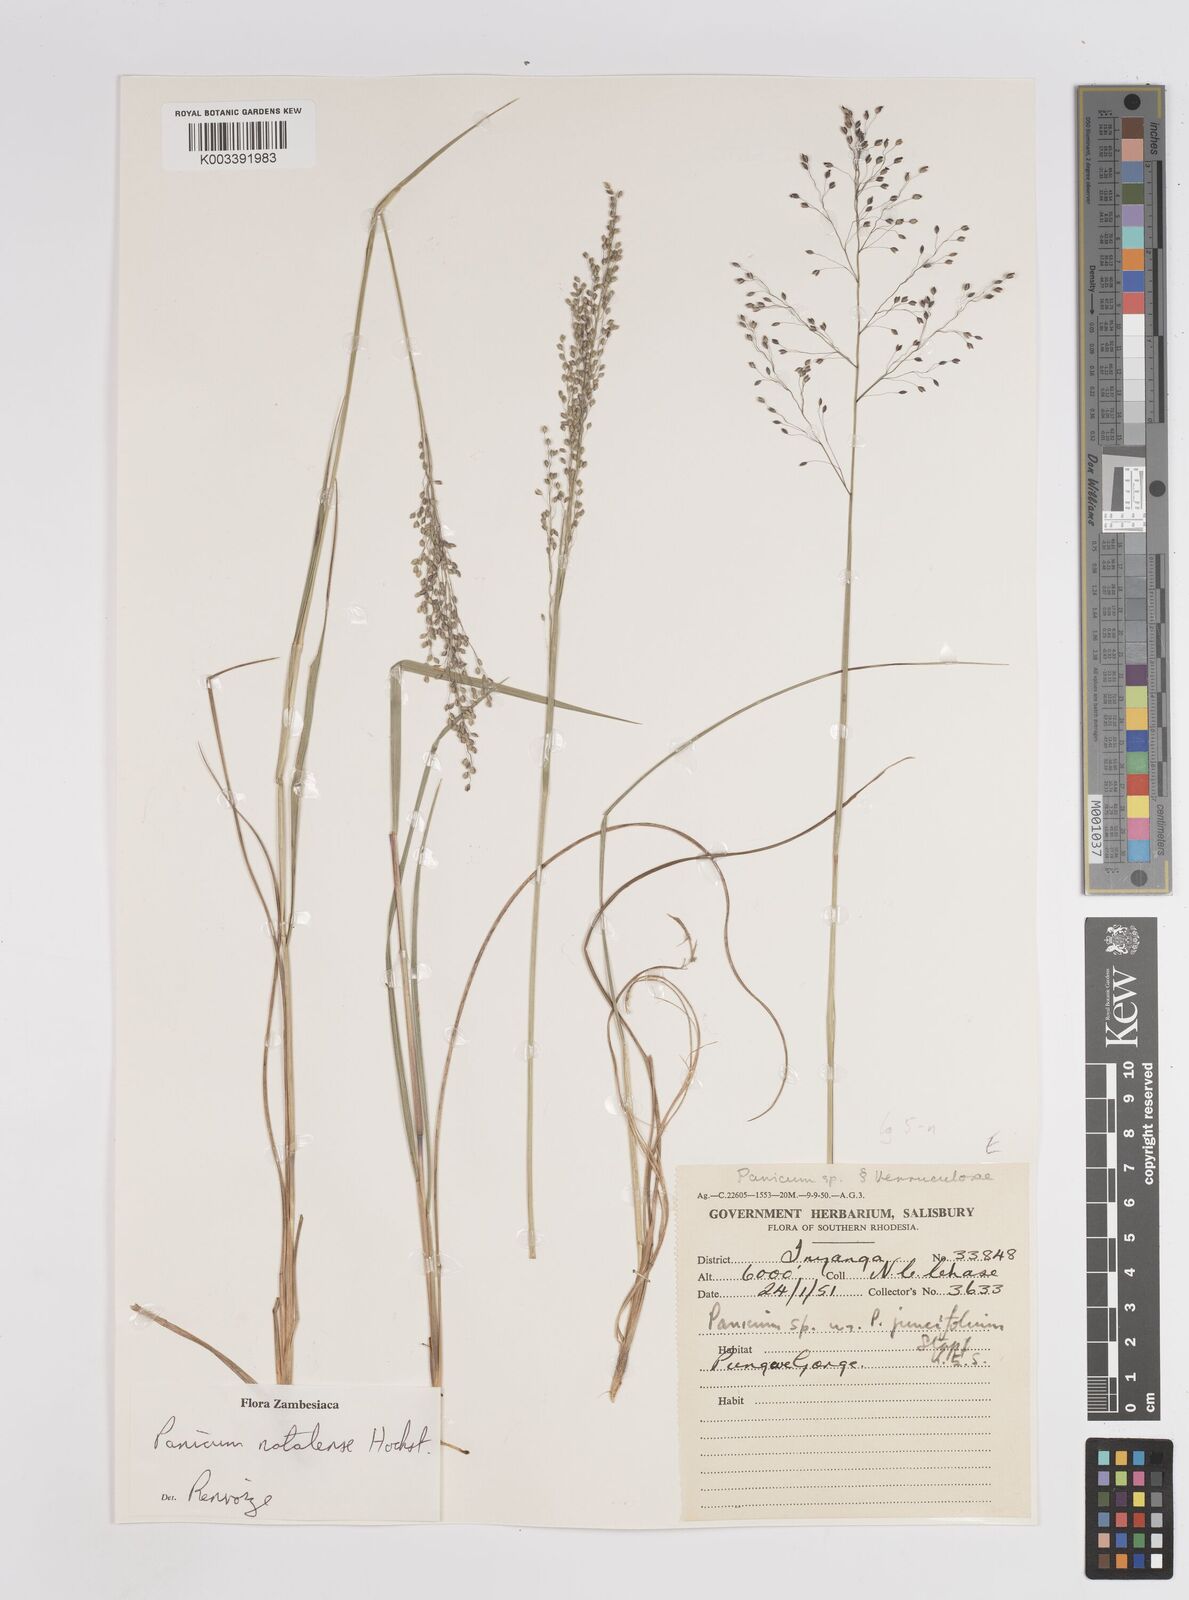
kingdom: Plantae
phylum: Tracheophyta
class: Liliopsida
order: Poales
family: Poaceae
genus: Trichanthecium
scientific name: Trichanthecium natalense
